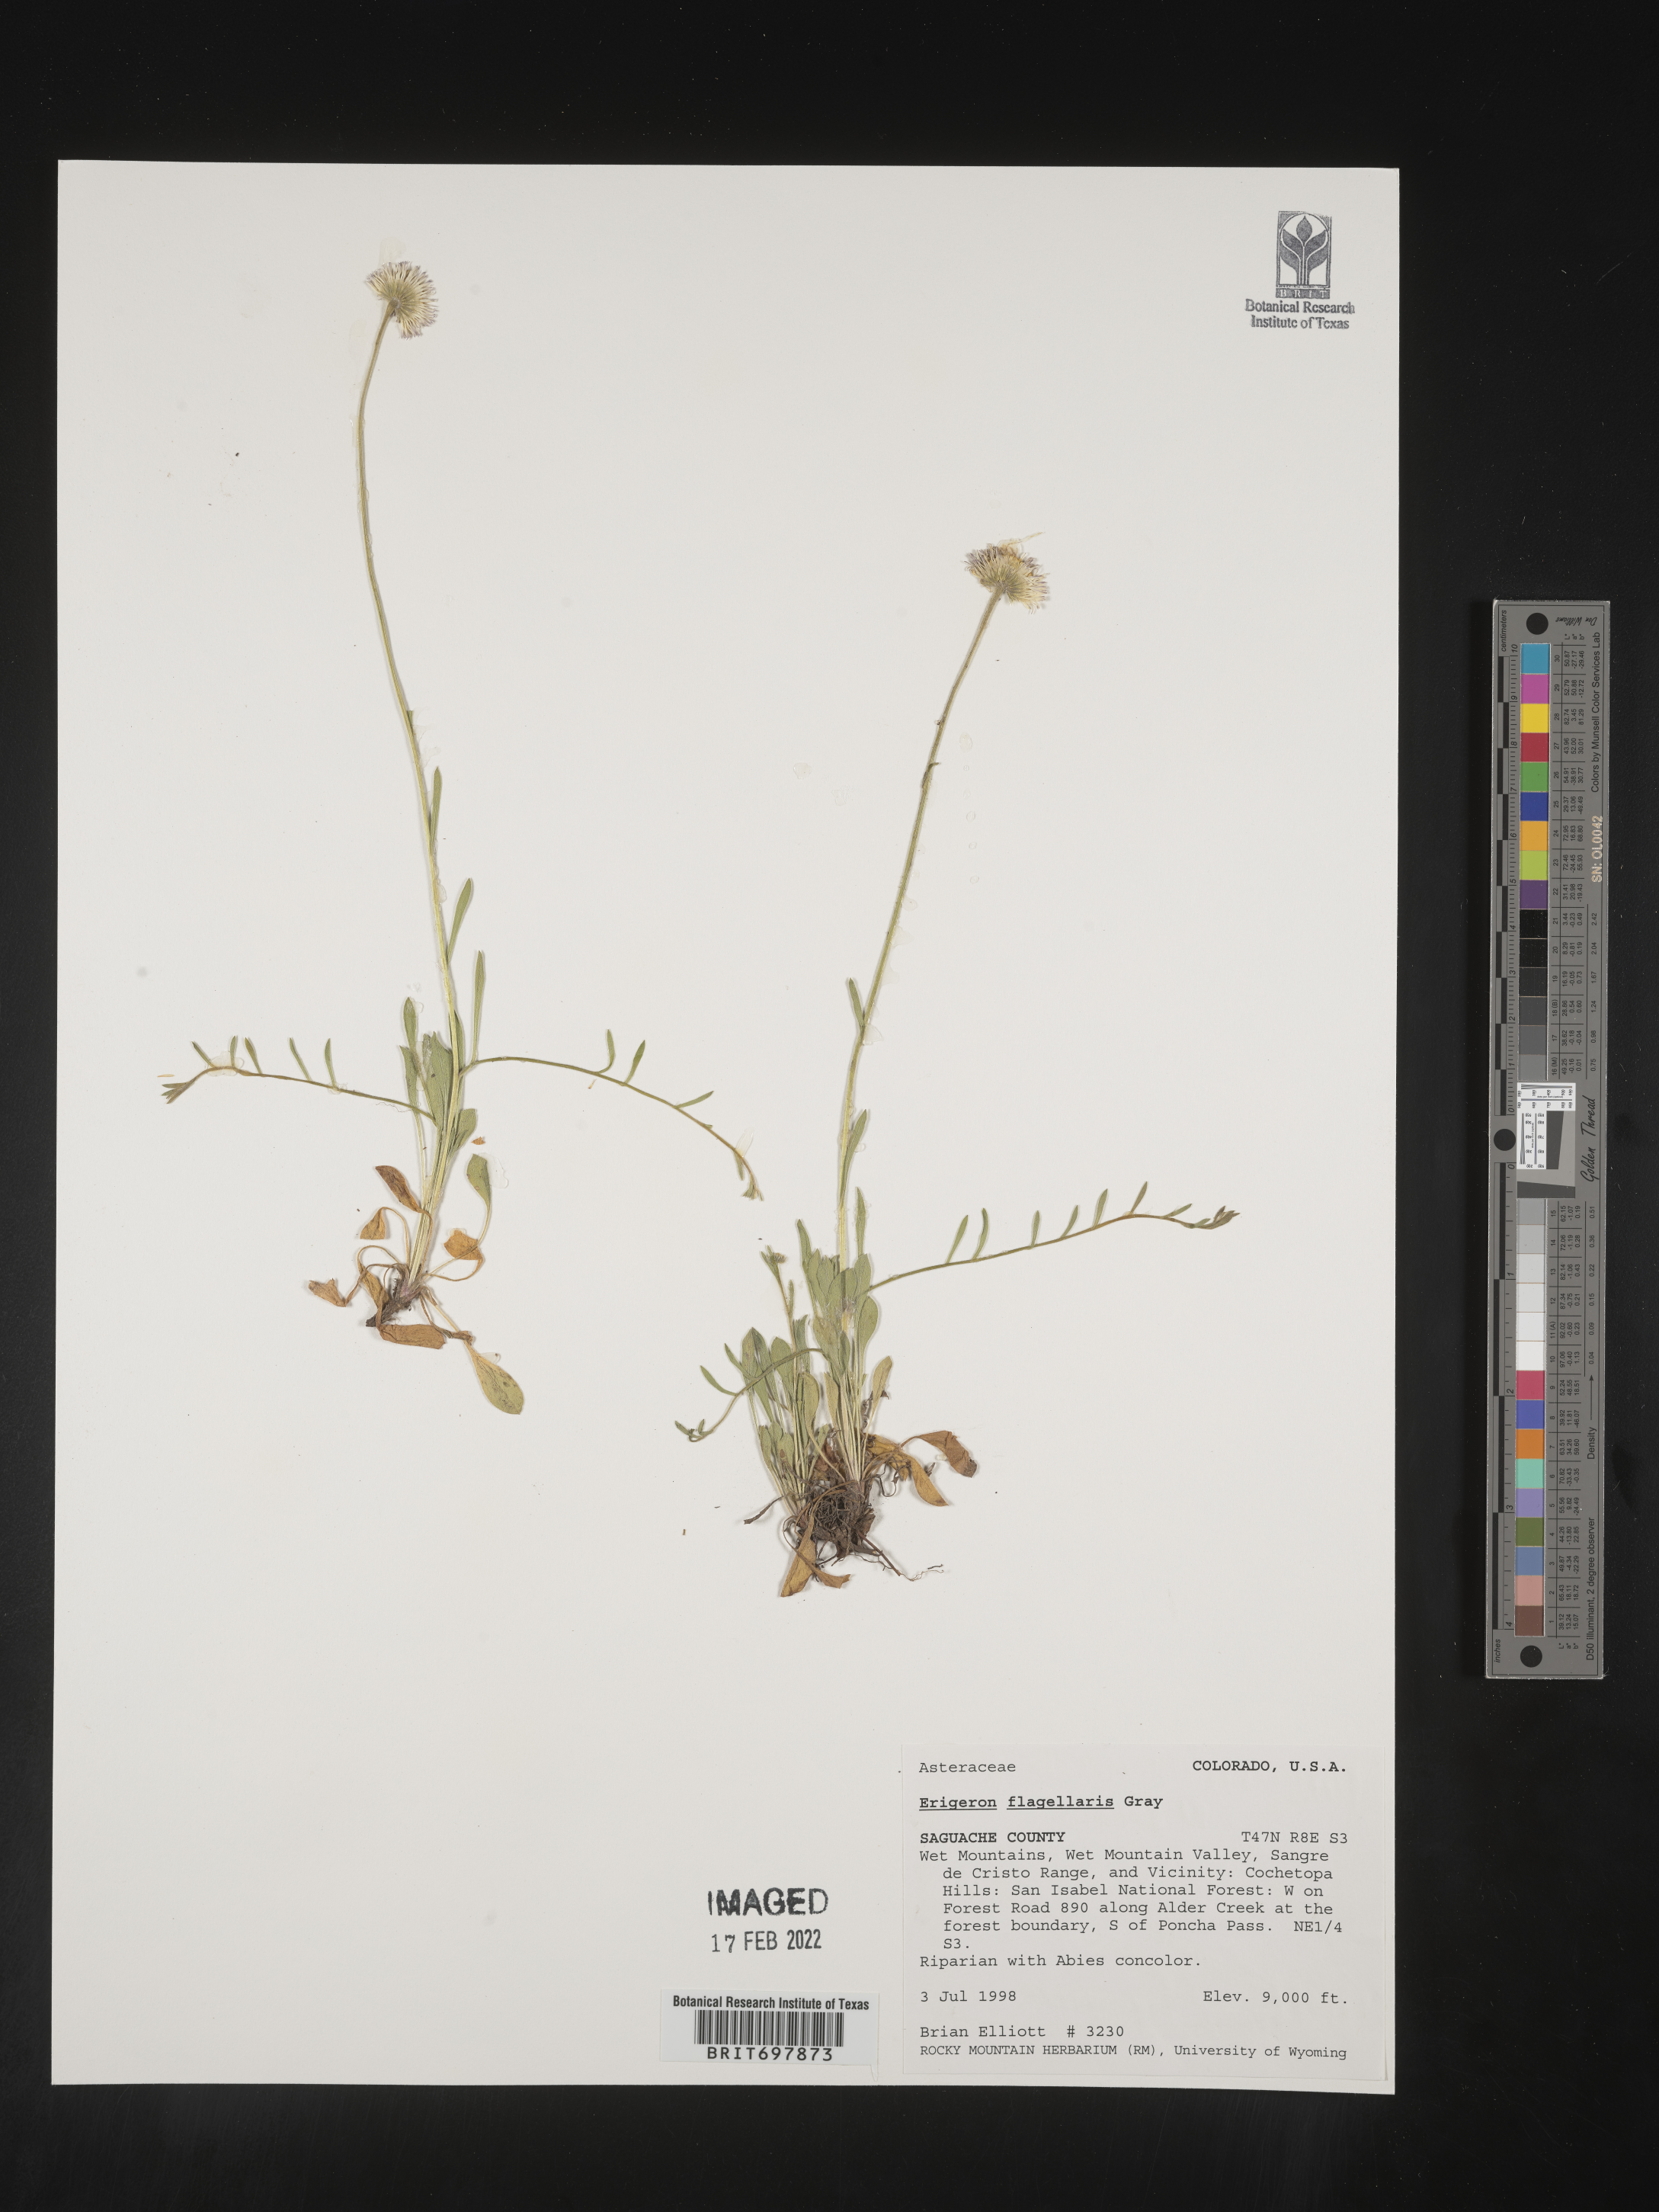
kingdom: Plantae
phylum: Tracheophyta
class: Magnoliopsida
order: Asterales
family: Asteraceae
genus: Erigeron
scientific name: Erigeron flagellaris
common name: Running fleabane
